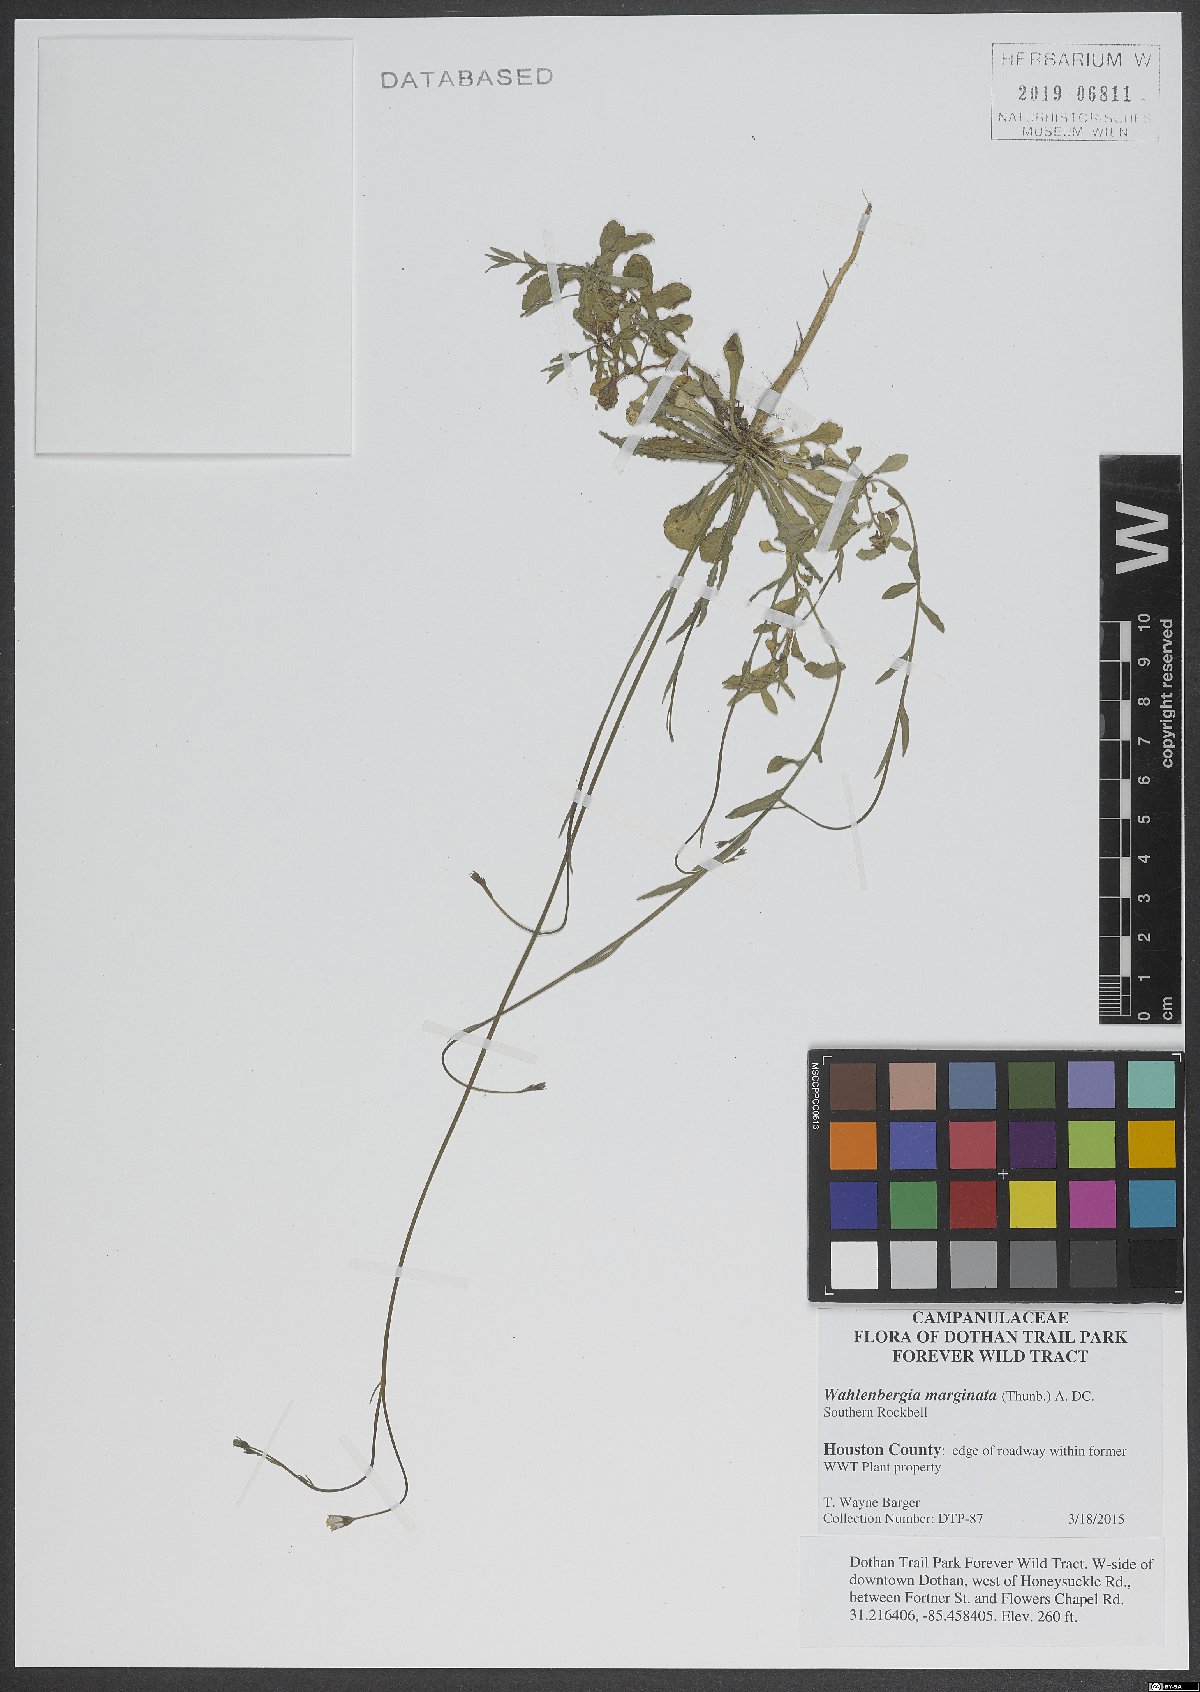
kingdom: Plantae
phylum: Tracheophyta
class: Magnoliopsida
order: Asterales
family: Campanulaceae
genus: Wahlenbergia
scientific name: Wahlenbergia marginata
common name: Southern rockbell
